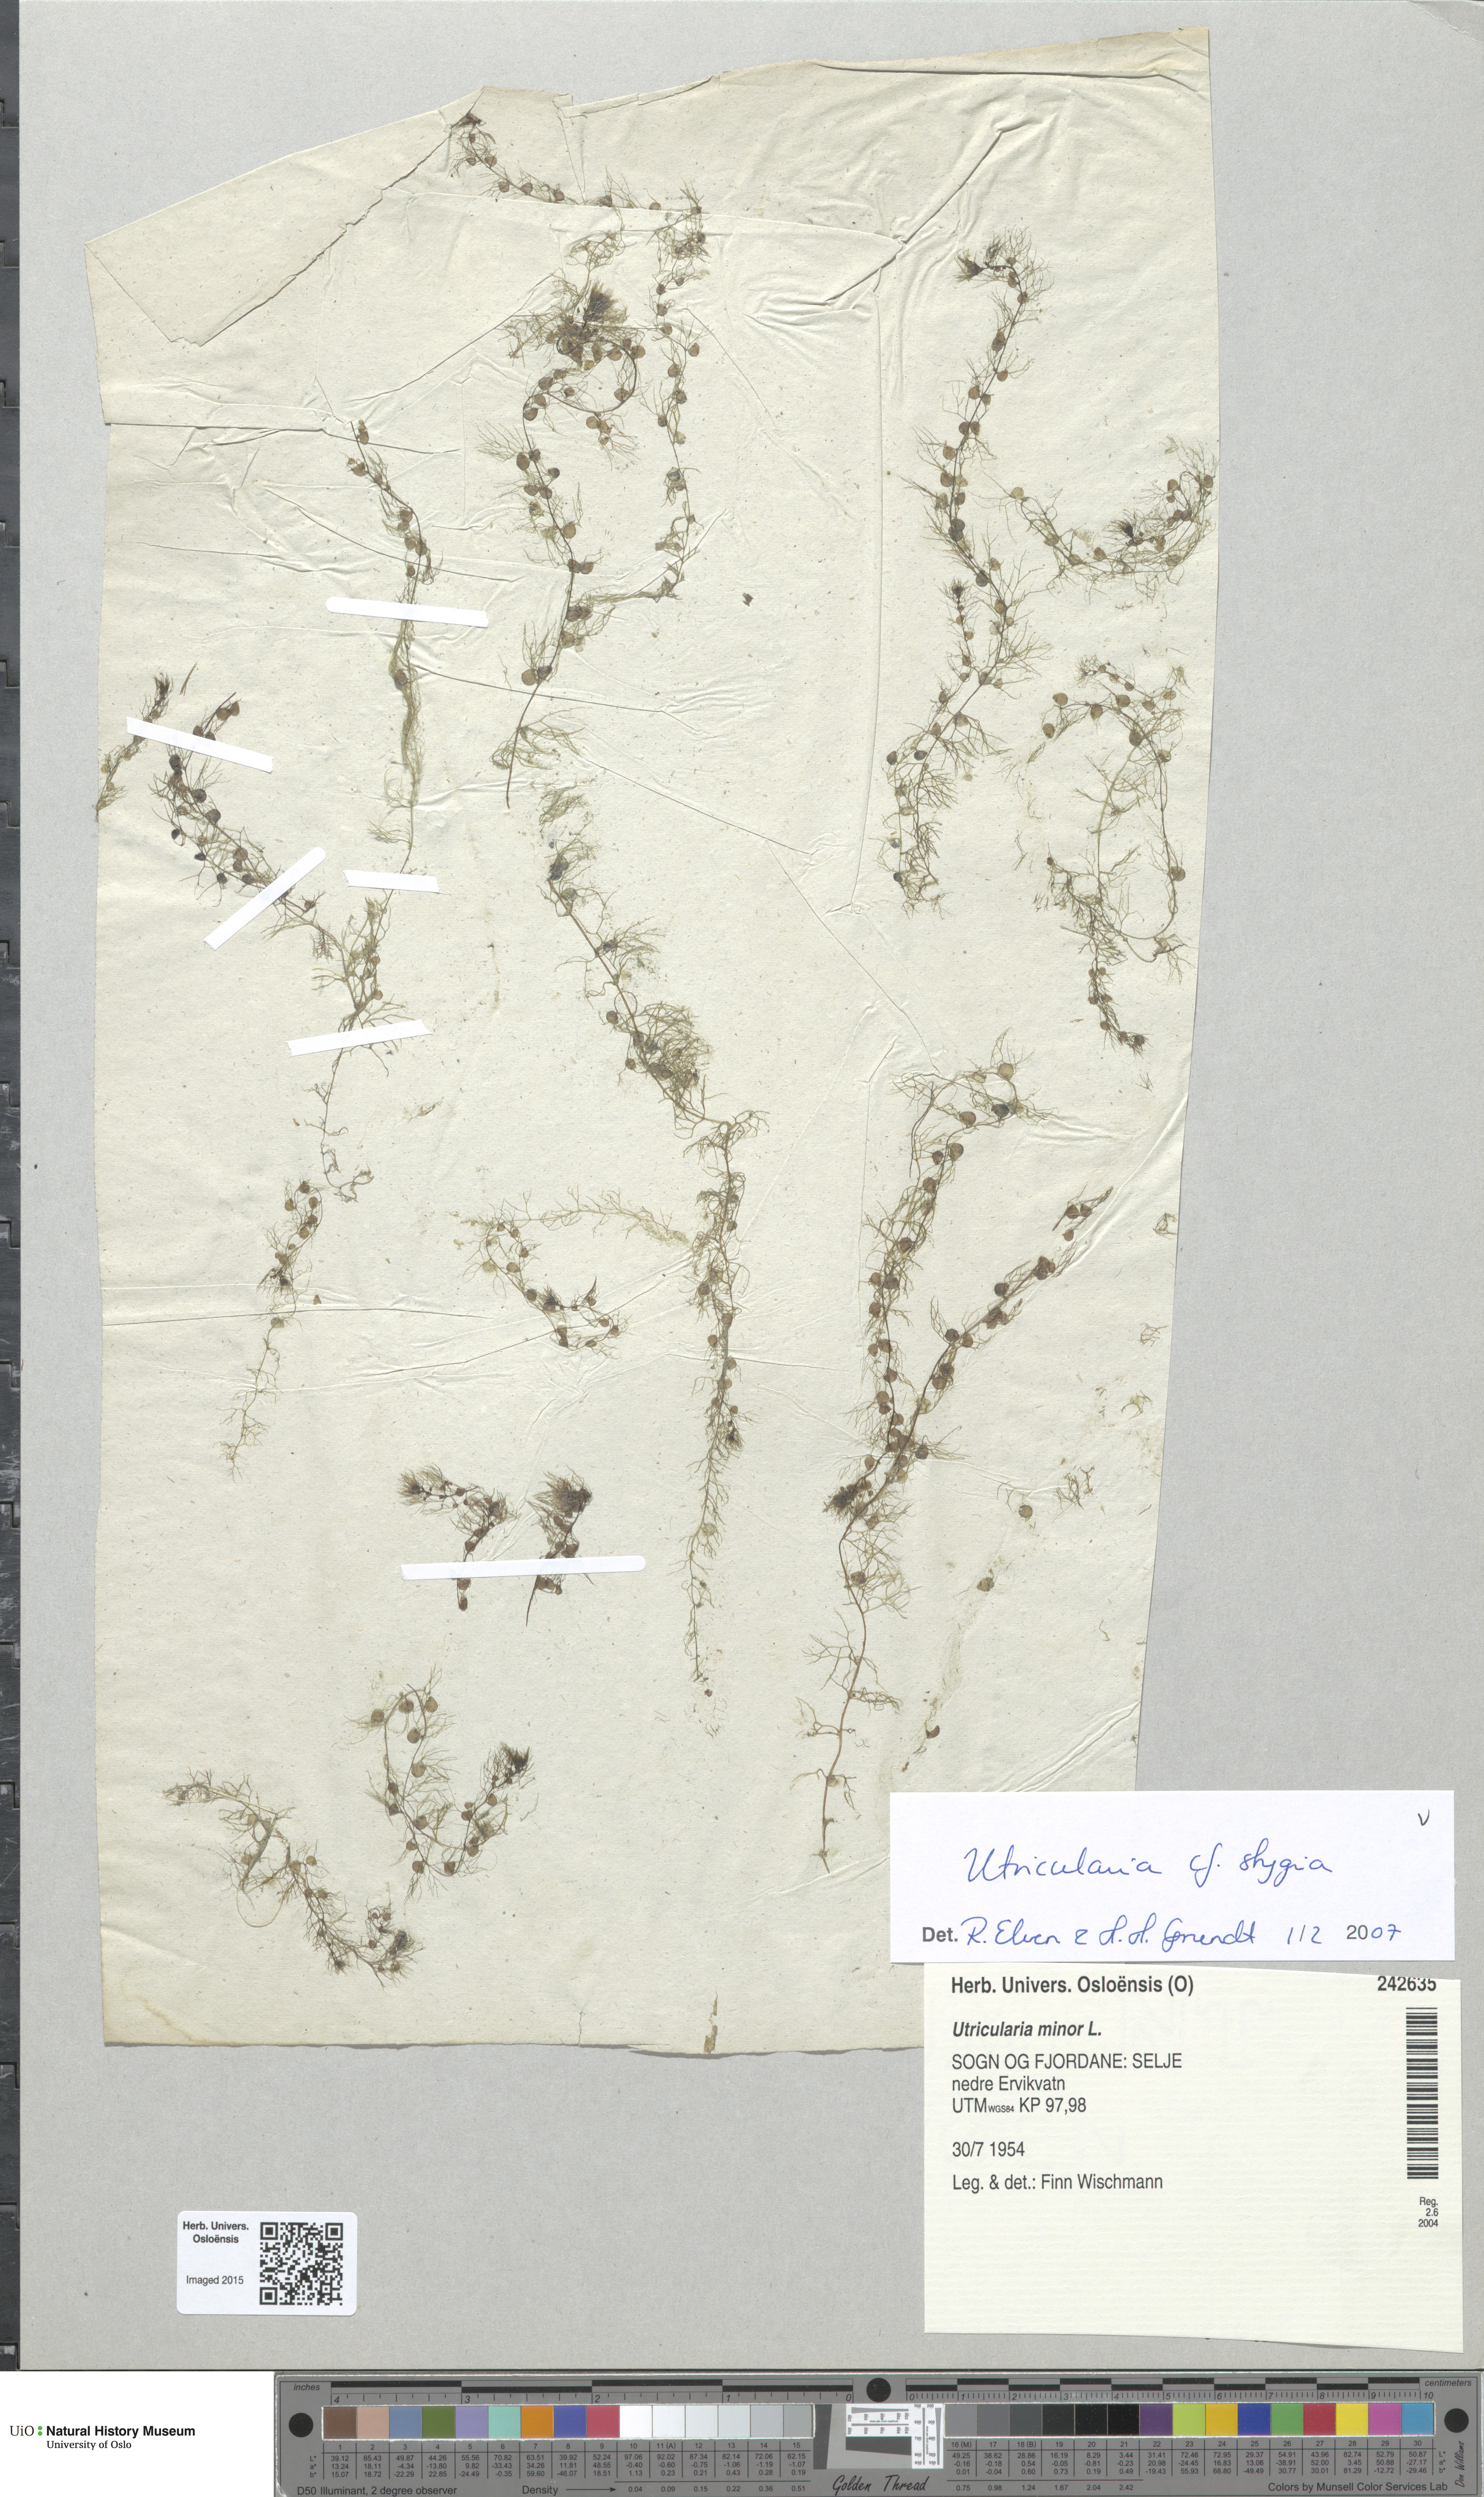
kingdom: Plantae
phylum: Tracheophyta
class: Magnoliopsida
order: Lamiales
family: Lentibulariaceae
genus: Utricularia
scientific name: Utricularia ochroleuca
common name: Pale bladderwort
